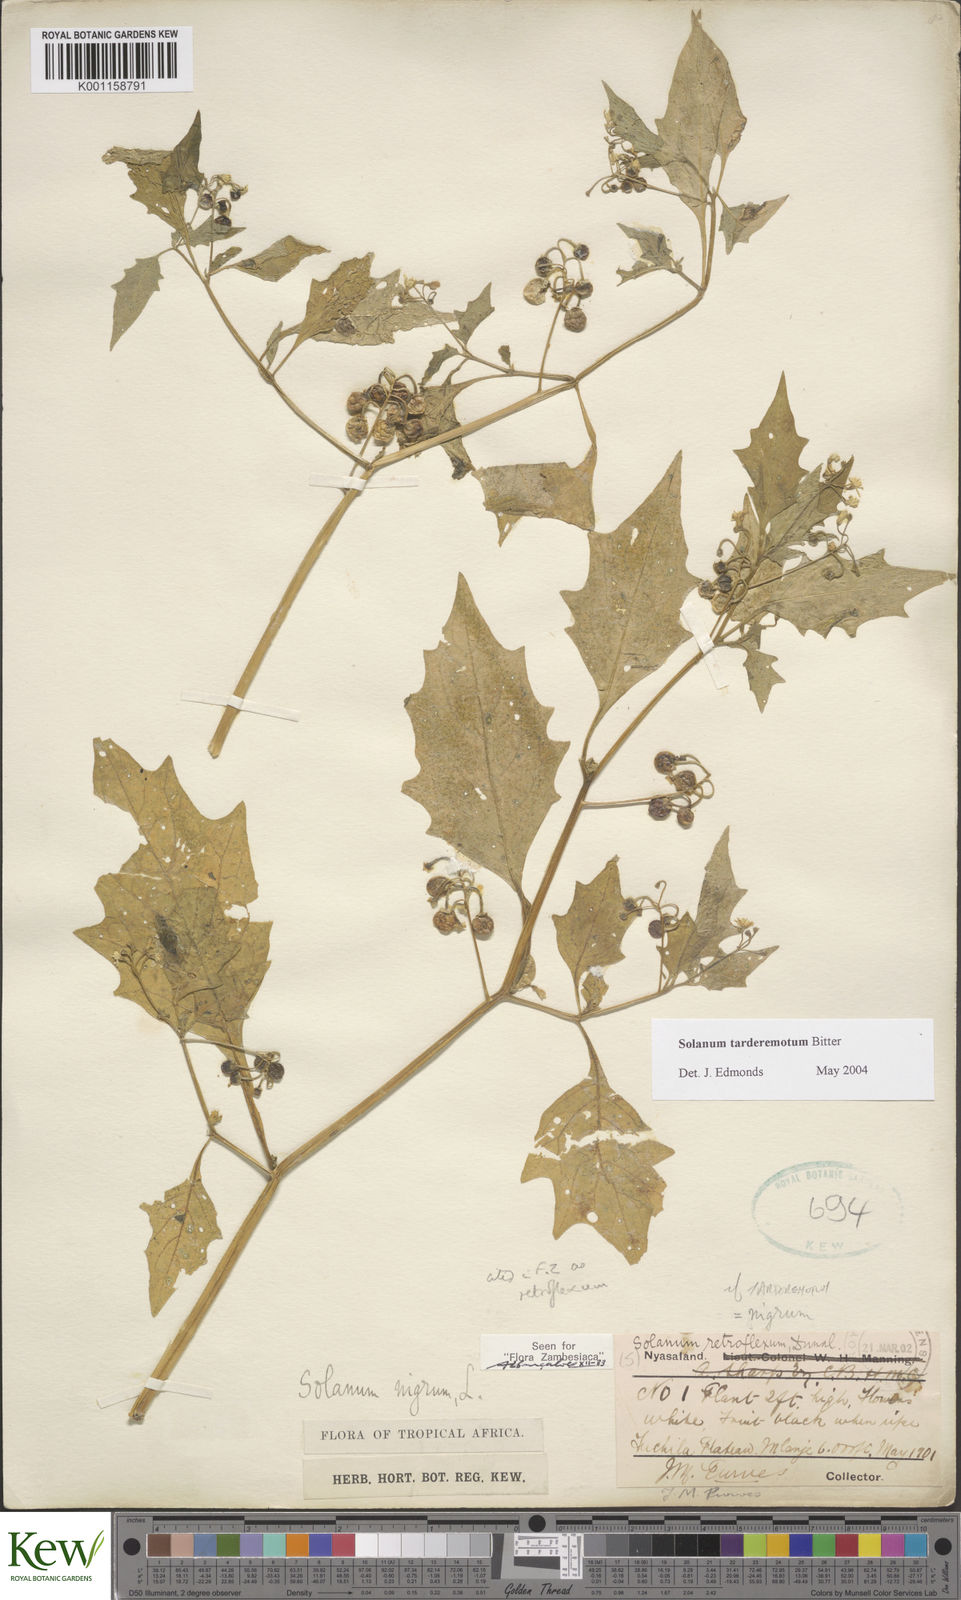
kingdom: Plantae
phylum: Tracheophyta
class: Magnoliopsida
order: Solanales
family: Solanaceae
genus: Solanum
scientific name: Solanum tarderemotum
